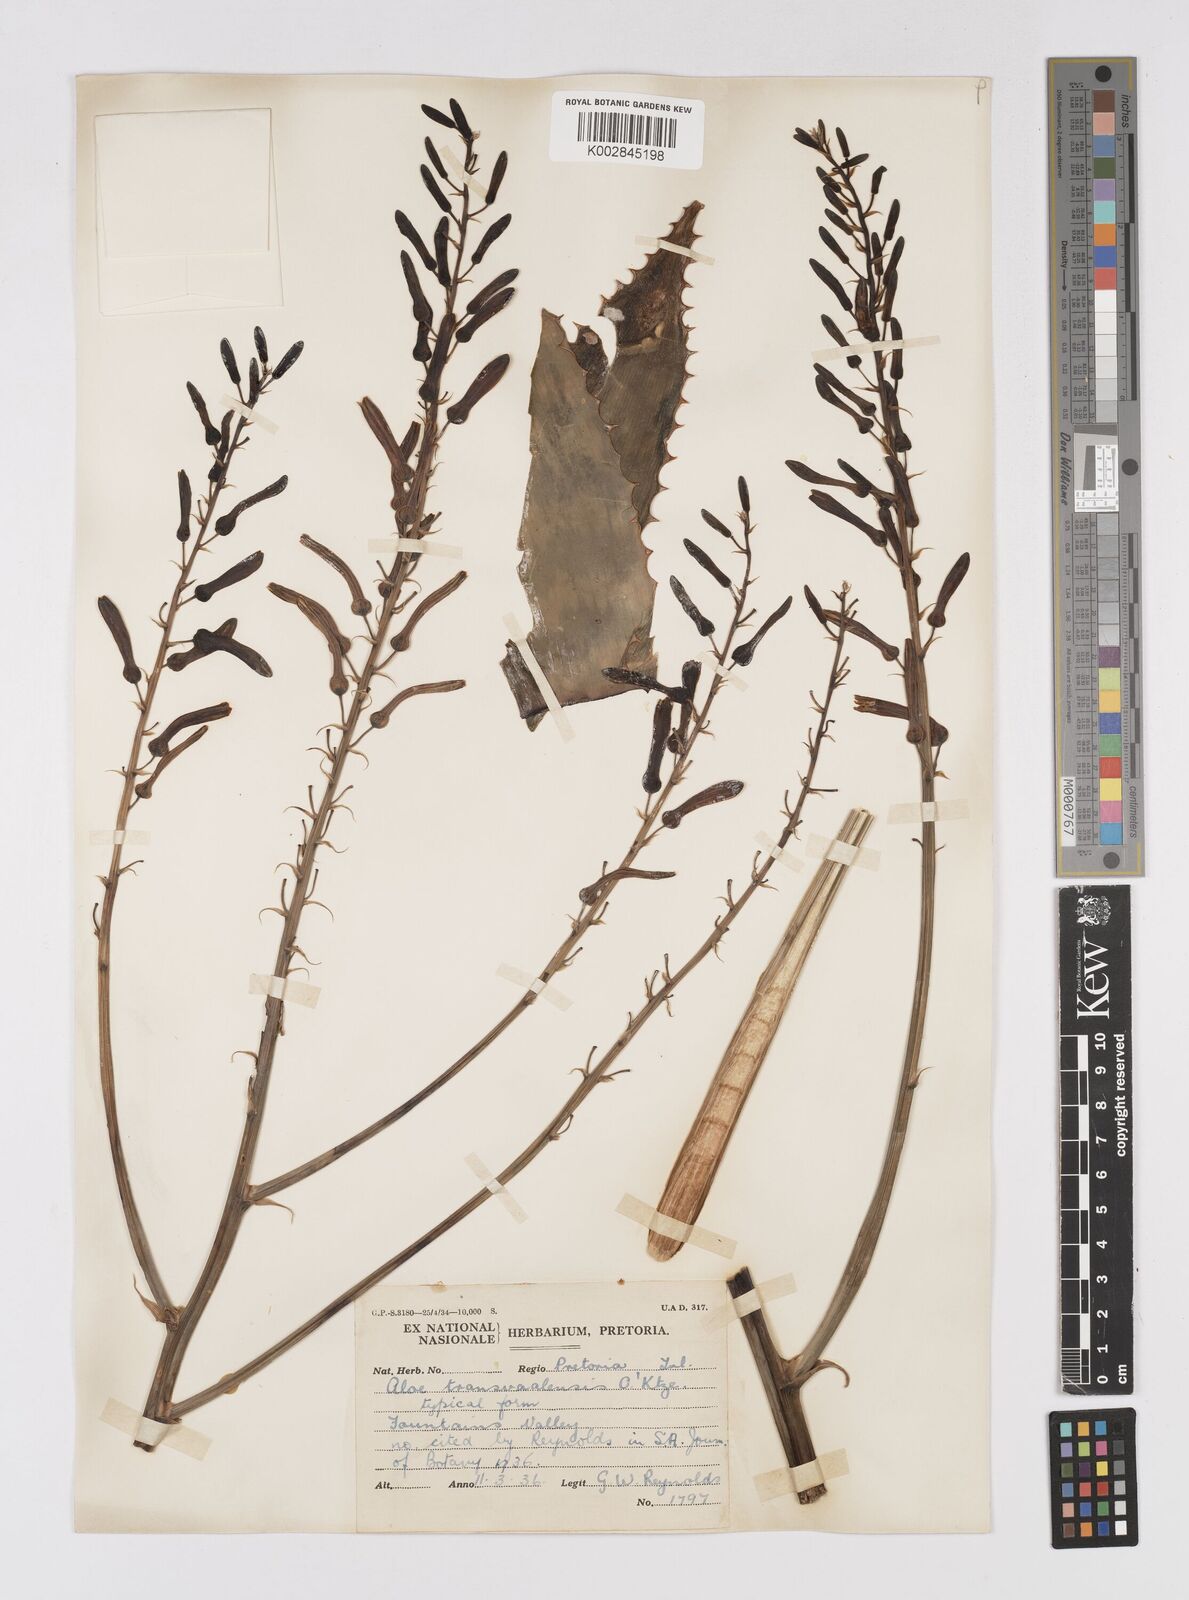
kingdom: Plantae
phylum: Tracheophyta
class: Liliopsida
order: Asparagales
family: Asphodelaceae
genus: Aloe
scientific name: Aloe transvaalensis
